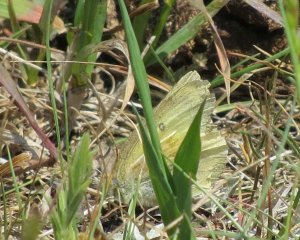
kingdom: Animalia
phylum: Arthropoda
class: Insecta
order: Lepidoptera
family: Pieridae
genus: Colias
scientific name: Colias eurytheme
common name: Orange Sulphur
